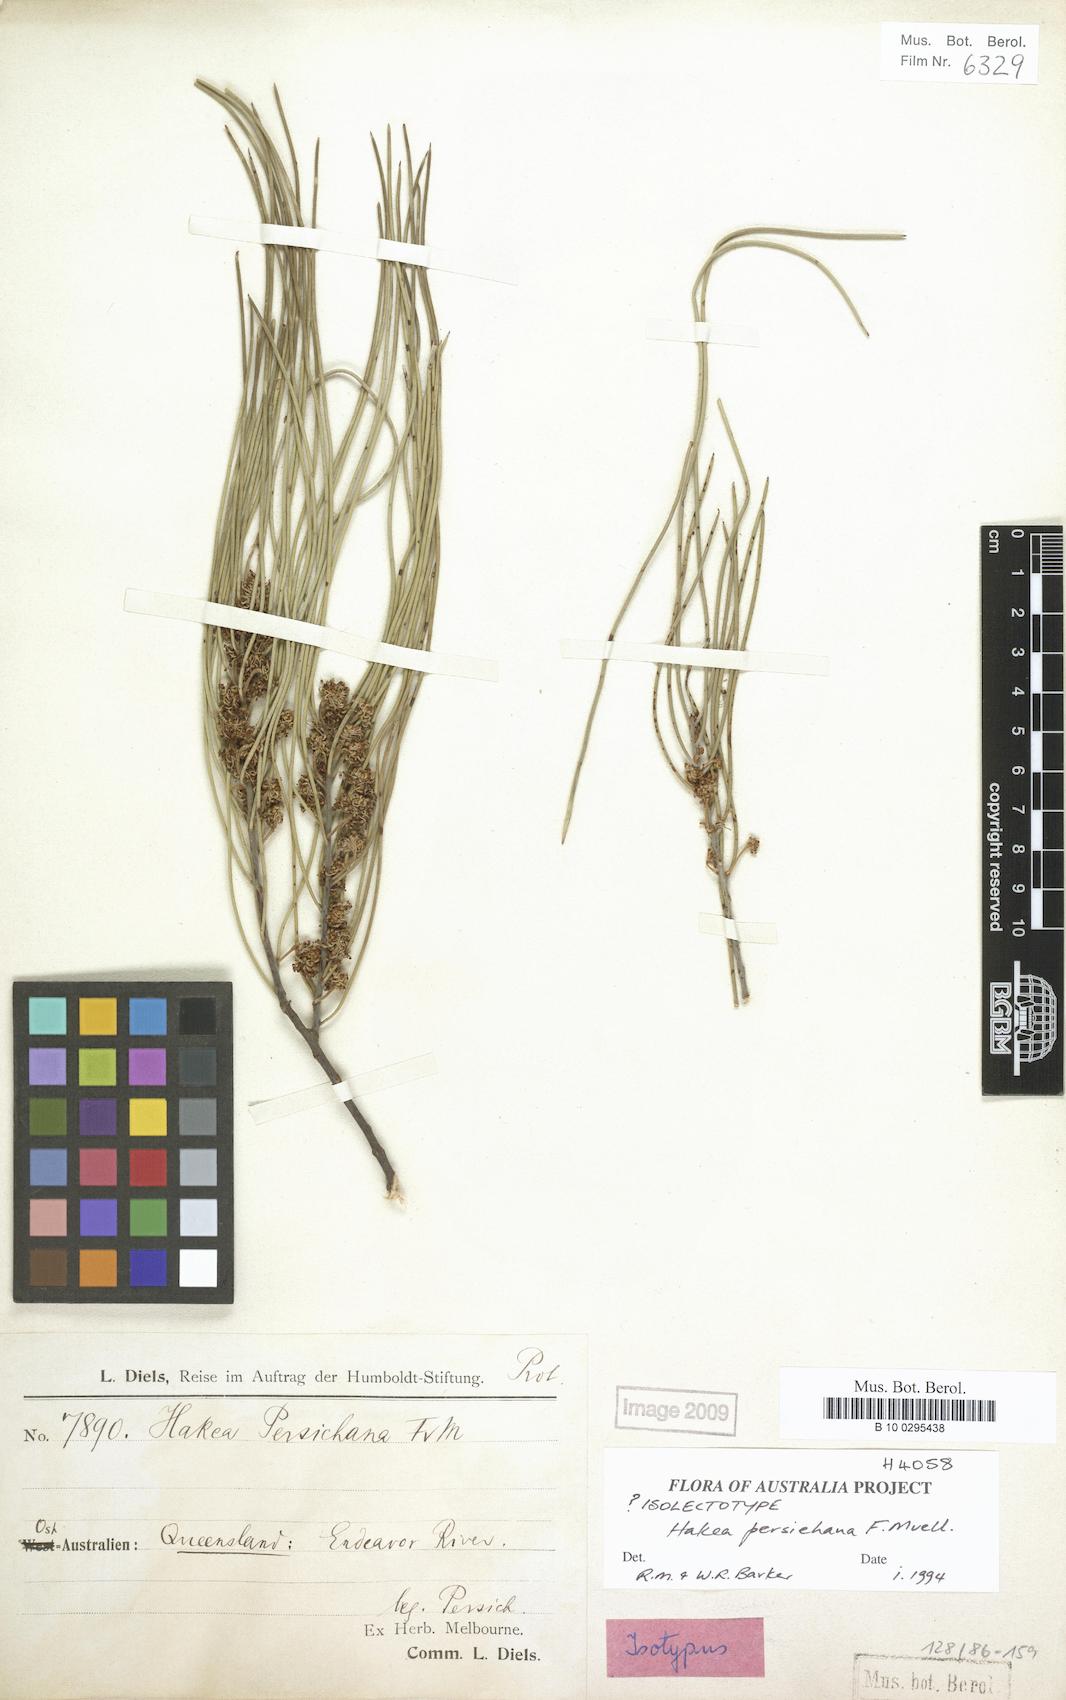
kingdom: Plantae
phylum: Tracheophyta
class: Magnoliopsida
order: Proteales
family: Proteaceae
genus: Hakea
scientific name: Hakea persiehana
